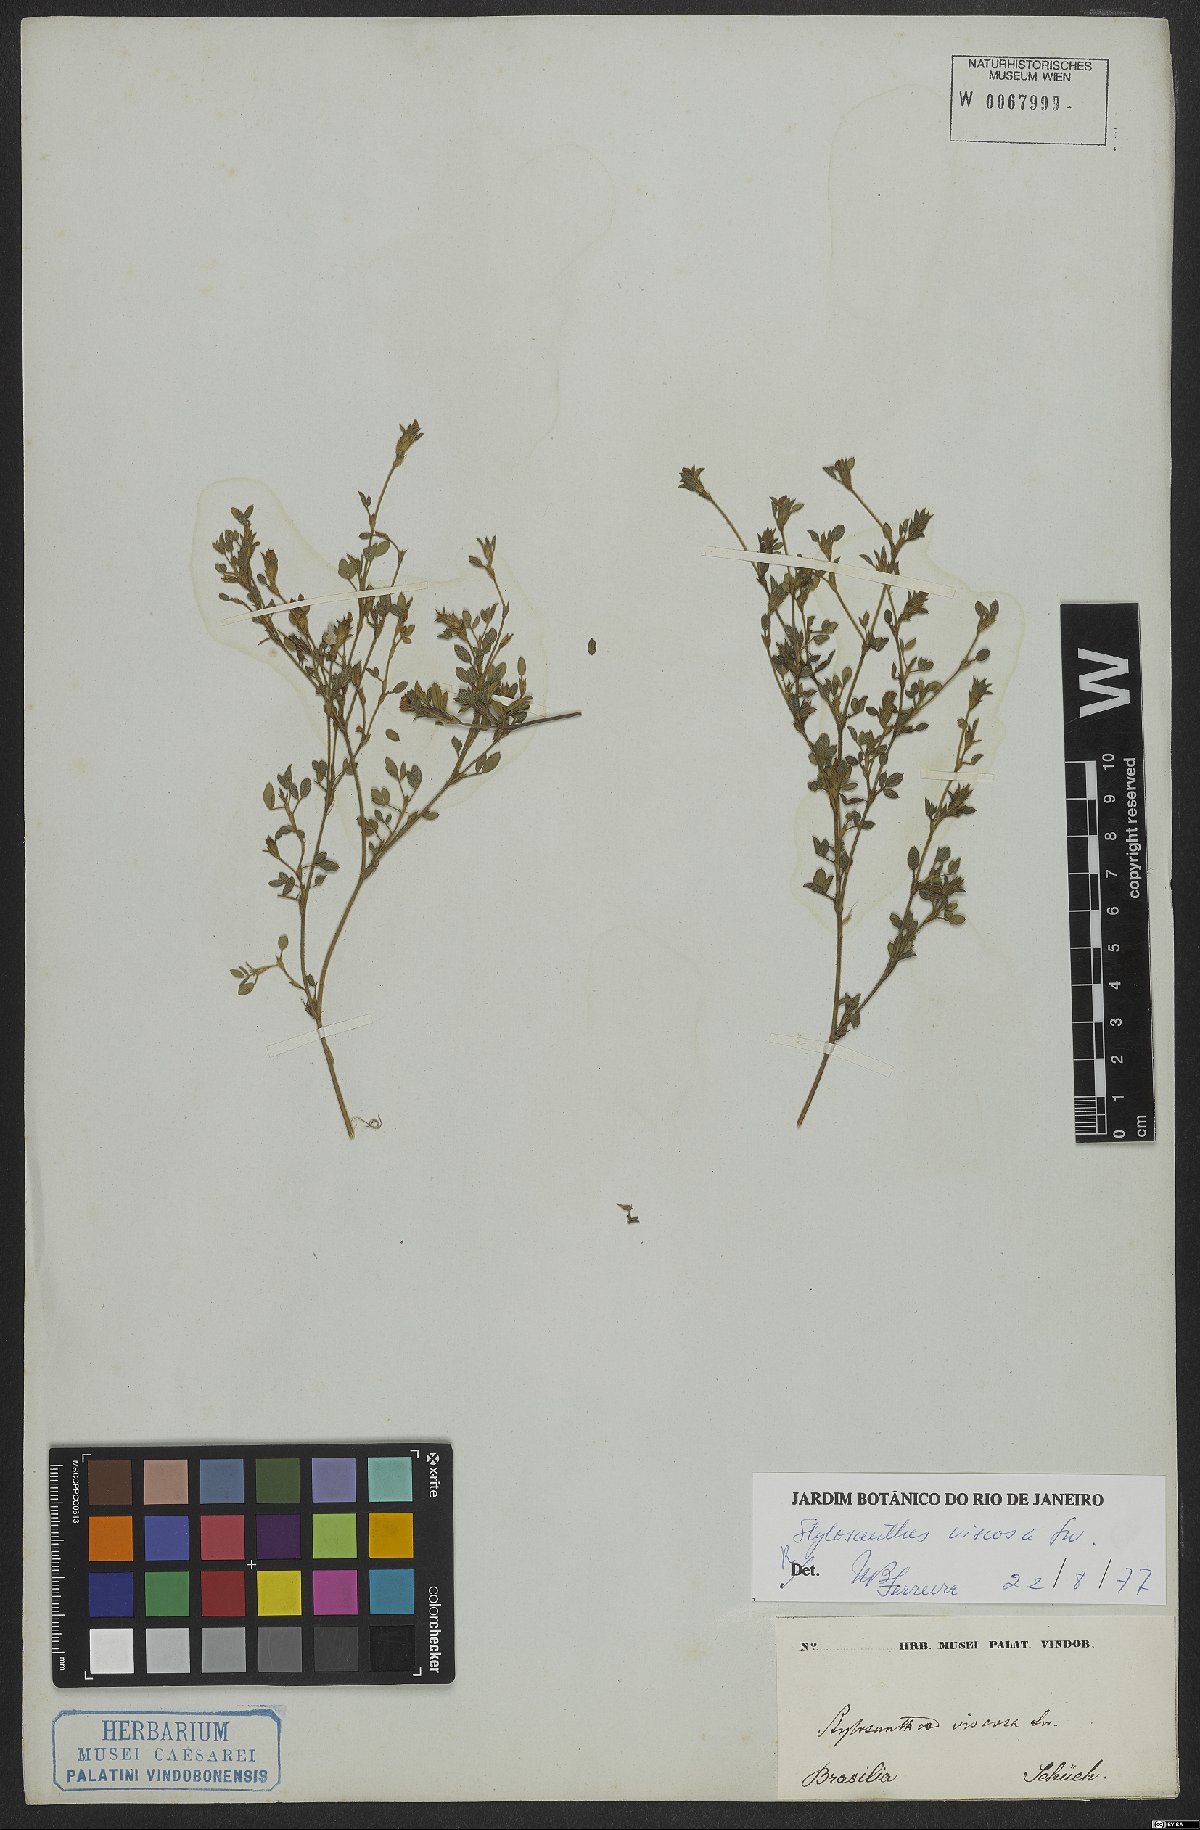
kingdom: Plantae
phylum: Tracheophyta
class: Magnoliopsida
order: Fabales
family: Fabaceae
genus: Stylosanthes
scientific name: Stylosanthes viscosa
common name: Viscid pencil-flower
